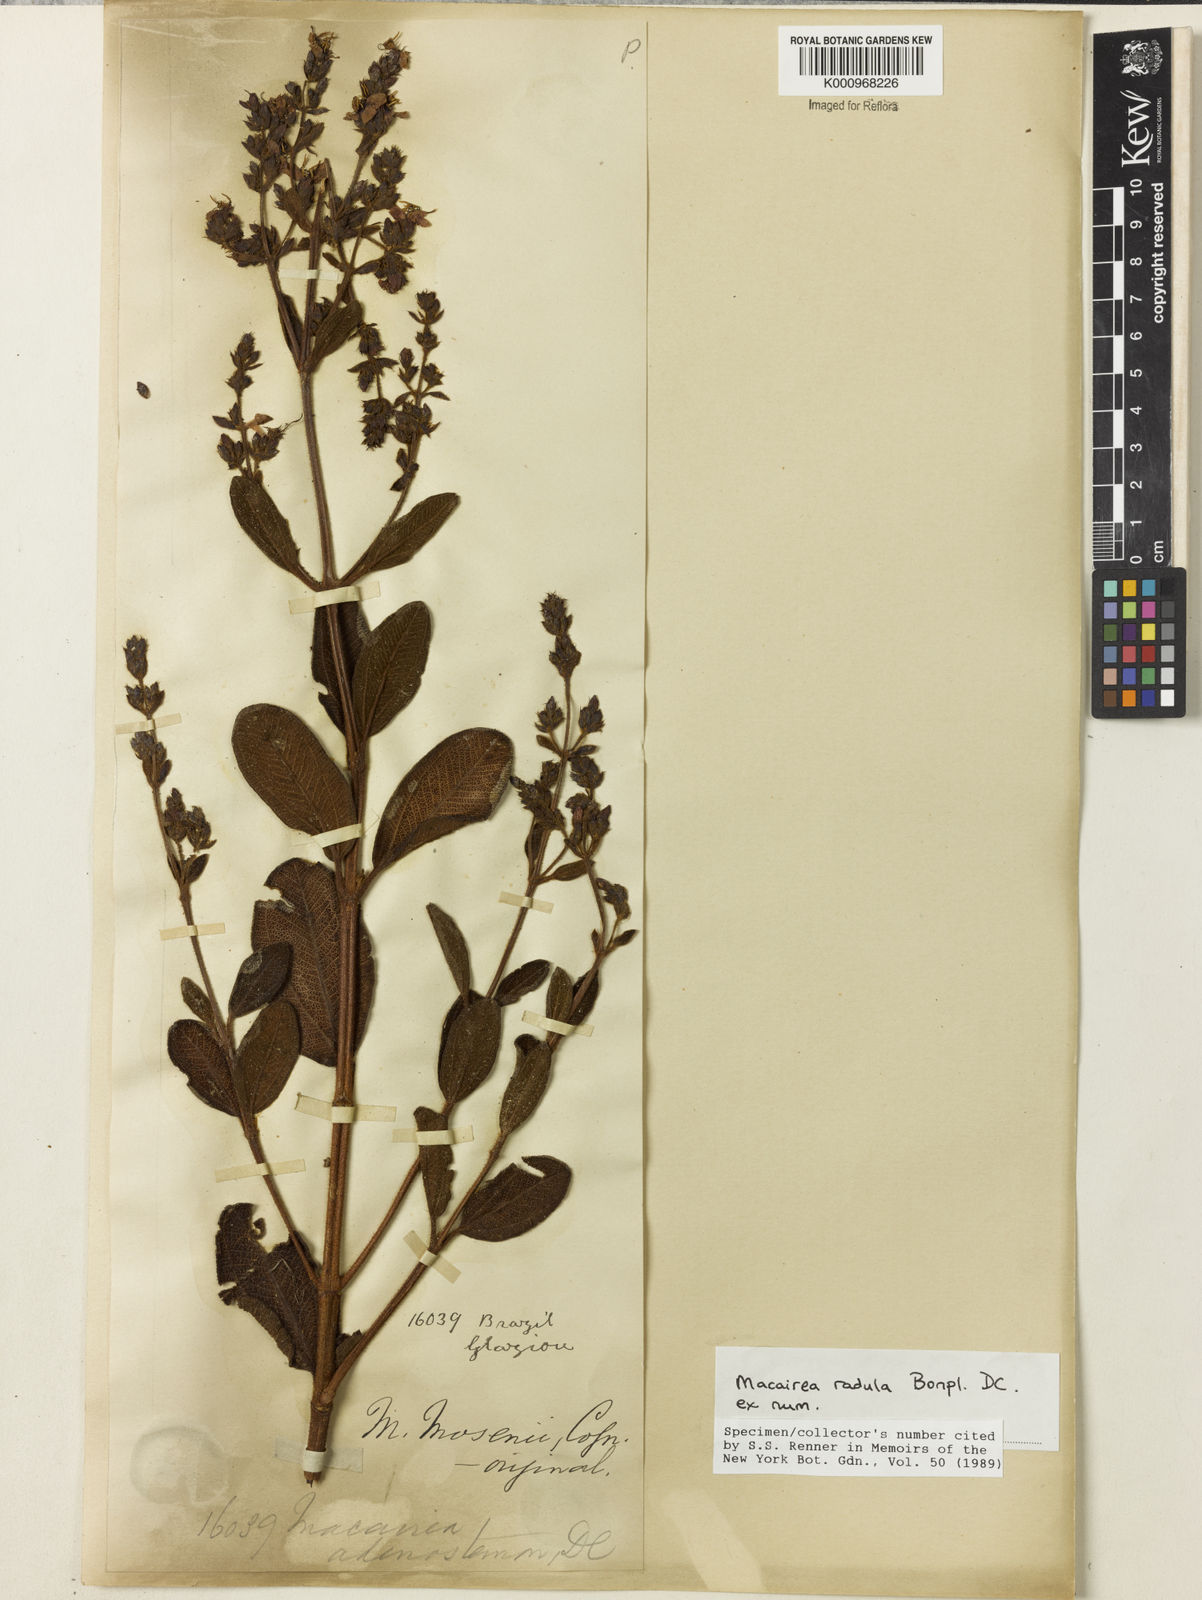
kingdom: Plantae
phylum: Tracheophyta
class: Magnoliopsida
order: Myrtales
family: Melastomataceae
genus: Macairea
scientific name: Macairea radula
